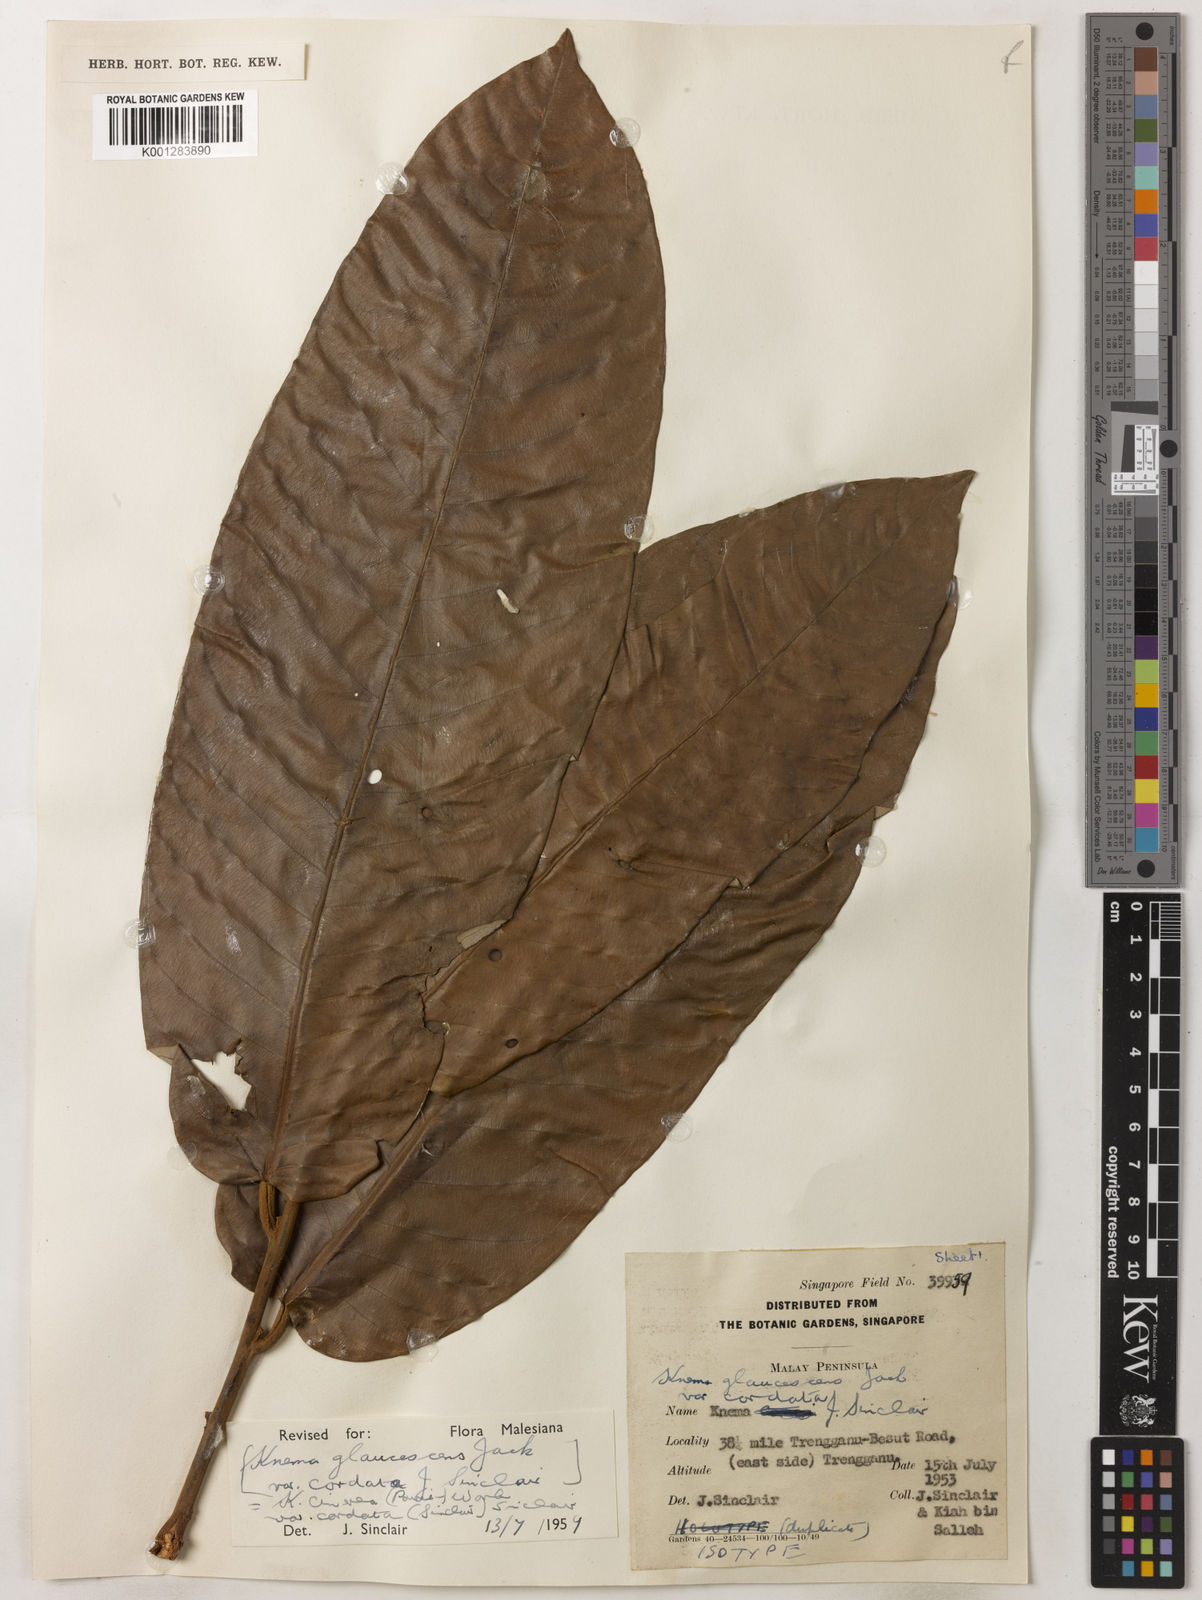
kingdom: Plantae
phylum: Tracheophyta
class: Magnoliopsida
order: Magnoliales
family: Myristicaceae
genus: Knema
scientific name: Knema
